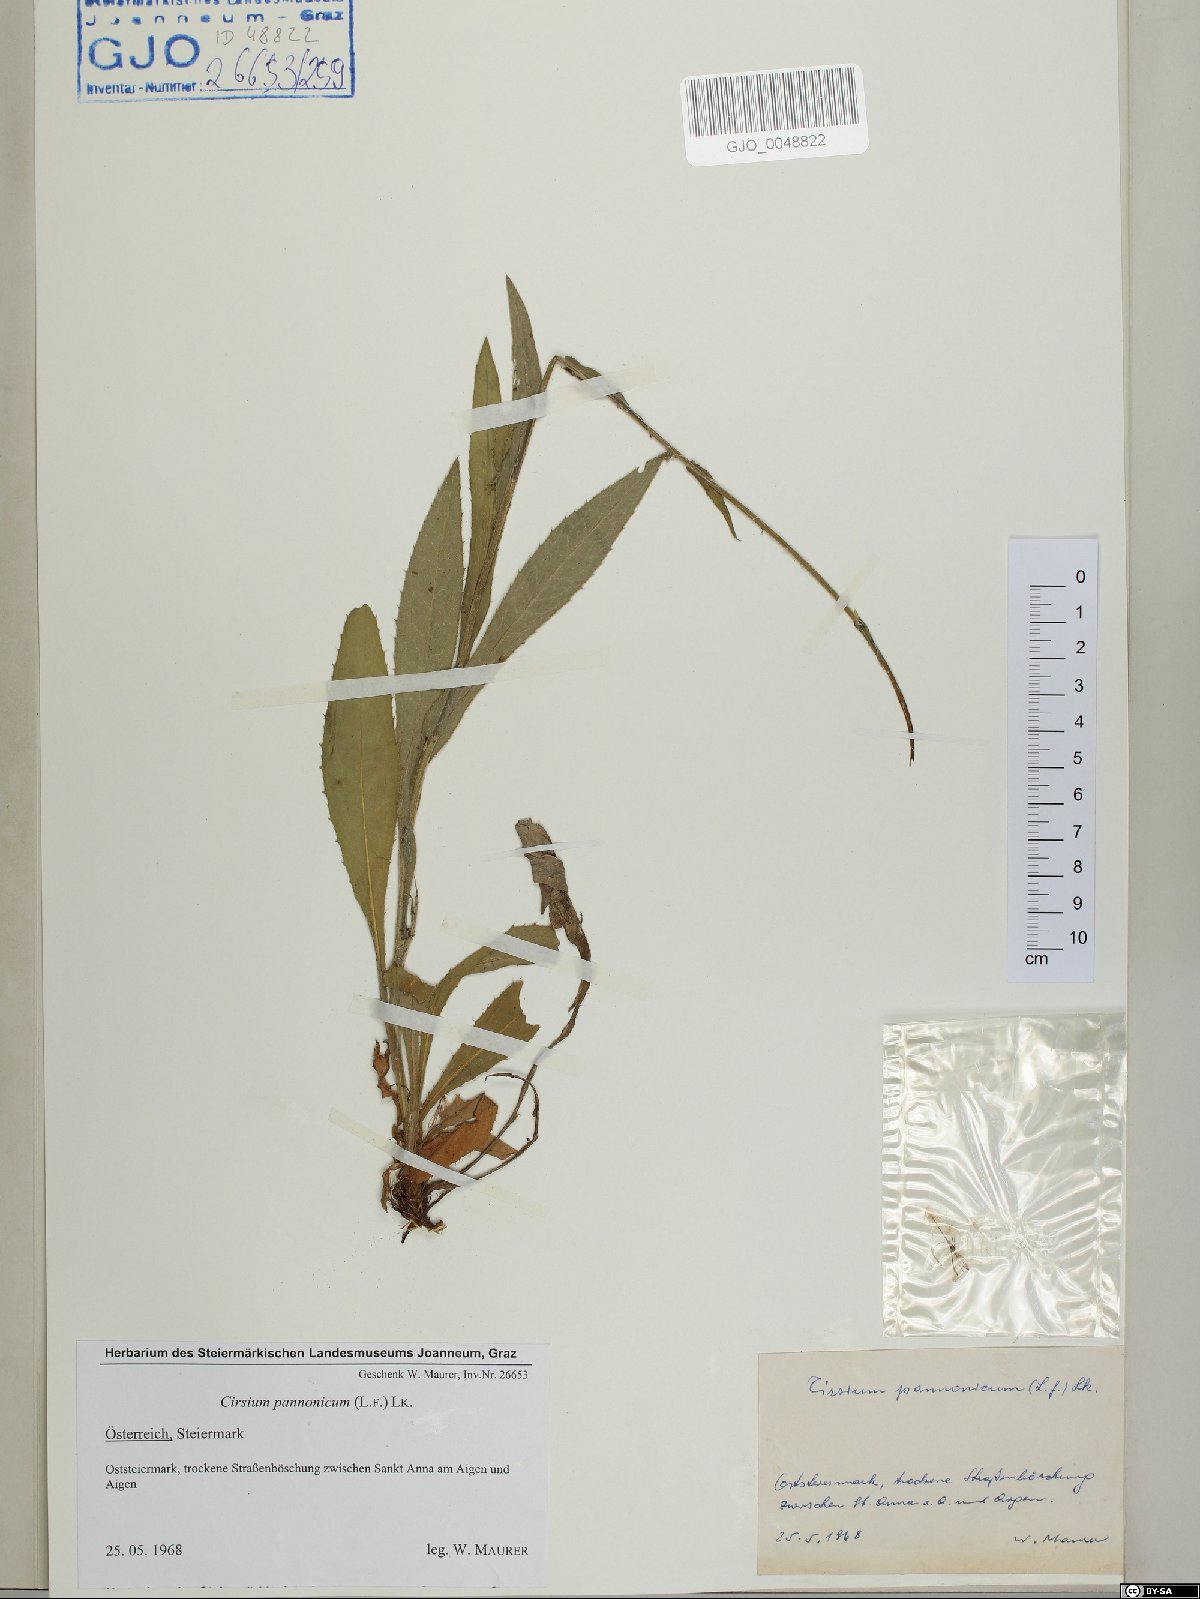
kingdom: Plantae
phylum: Tracheophyta
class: Magnoliopsida
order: Asterales
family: Asteraceae
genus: Cirsium
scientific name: Cirsium pannonicum
